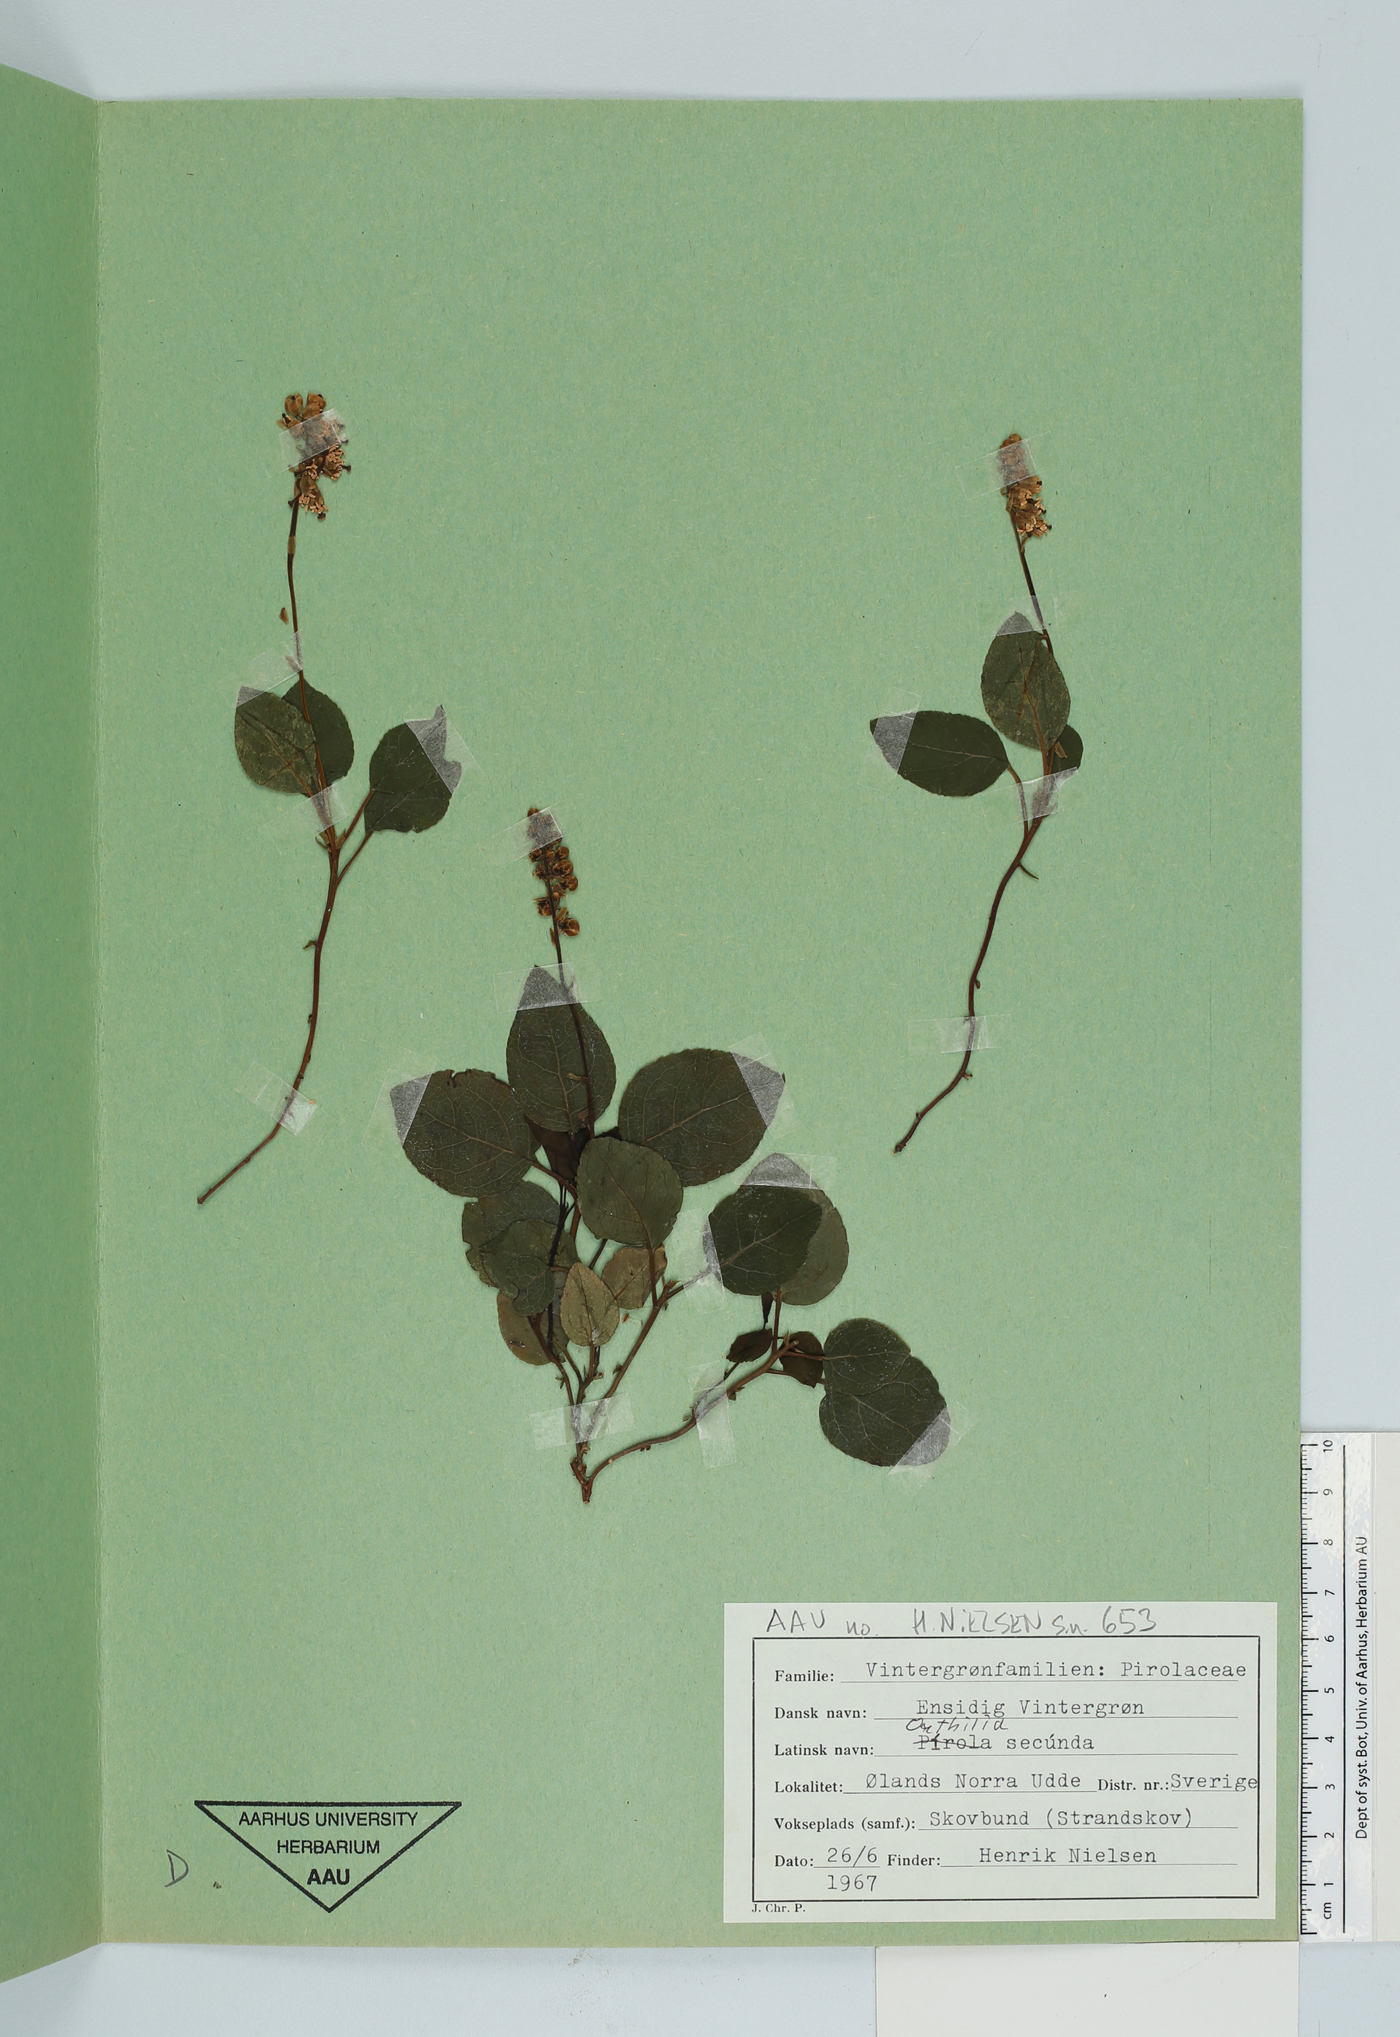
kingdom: Plantae
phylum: Tracheophyta
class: Magnoliopsida
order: Ericales
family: Ericaceae
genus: Orthilia
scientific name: Orthilia secunda
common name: One-sided orthilia
